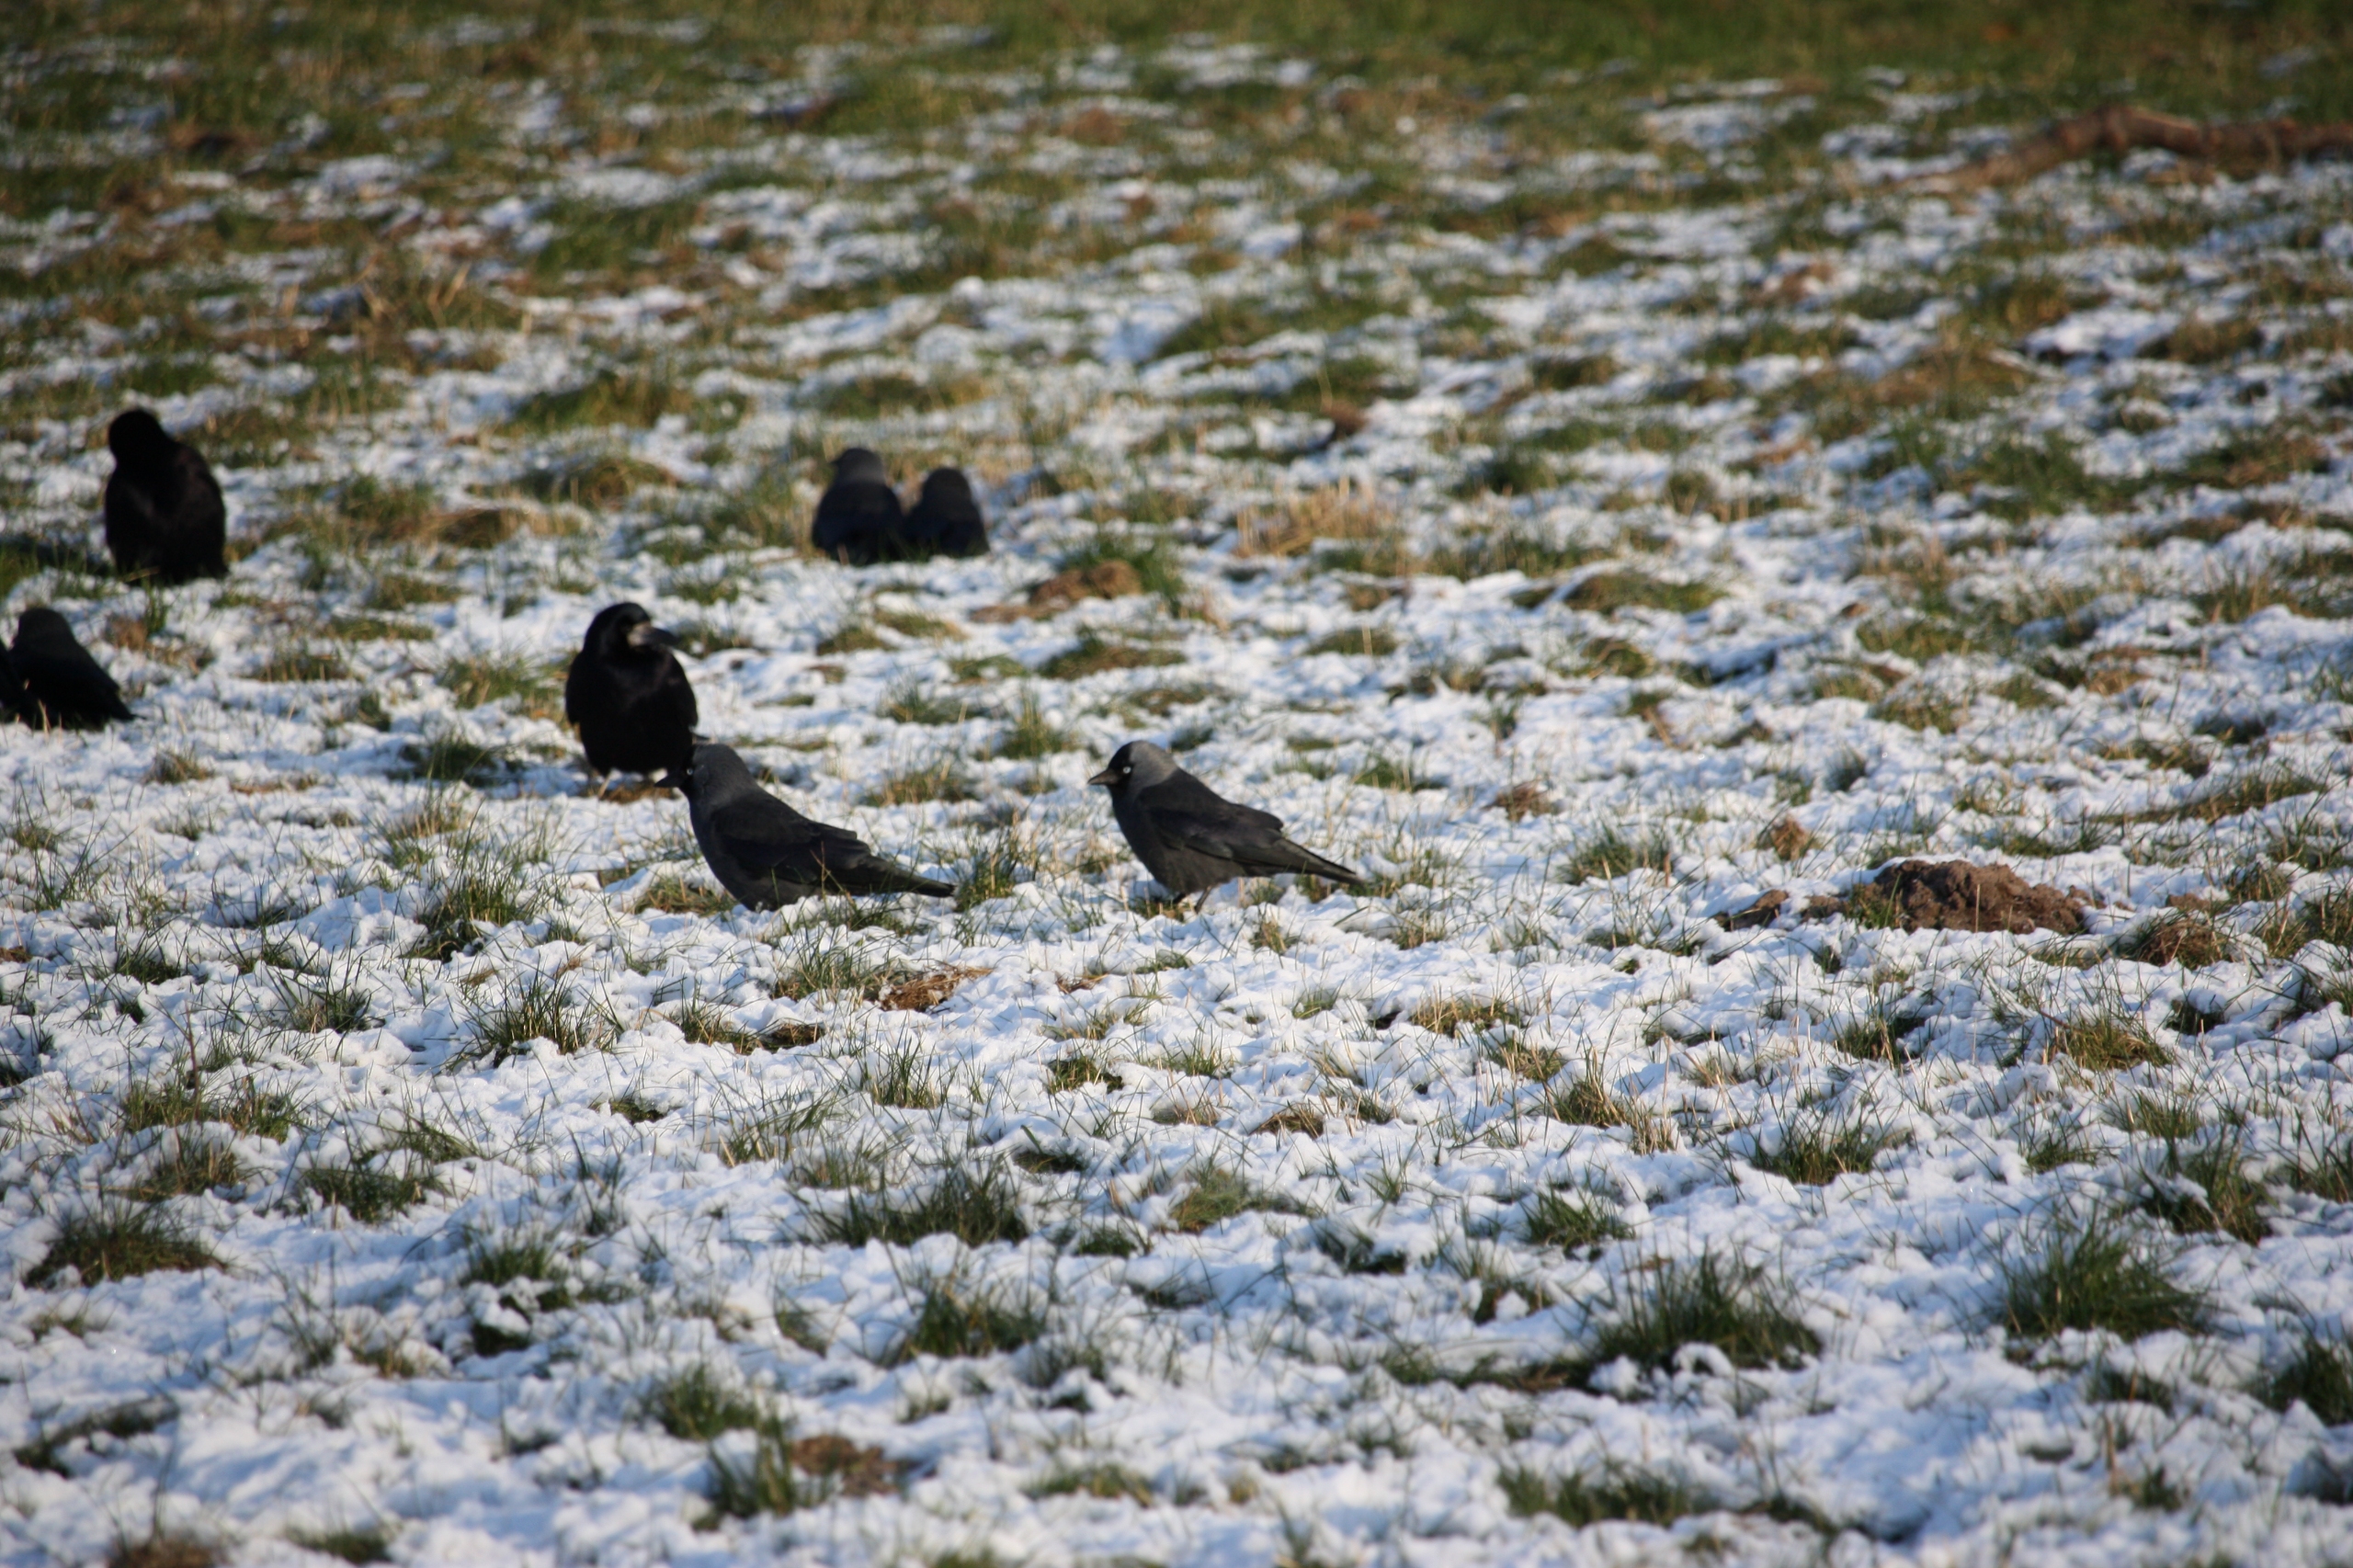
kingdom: Animalia
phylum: Chordata
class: Aves
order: Passeriformes
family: Corvidae
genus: Coloeus
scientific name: Coloeus monedula
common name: Allike
